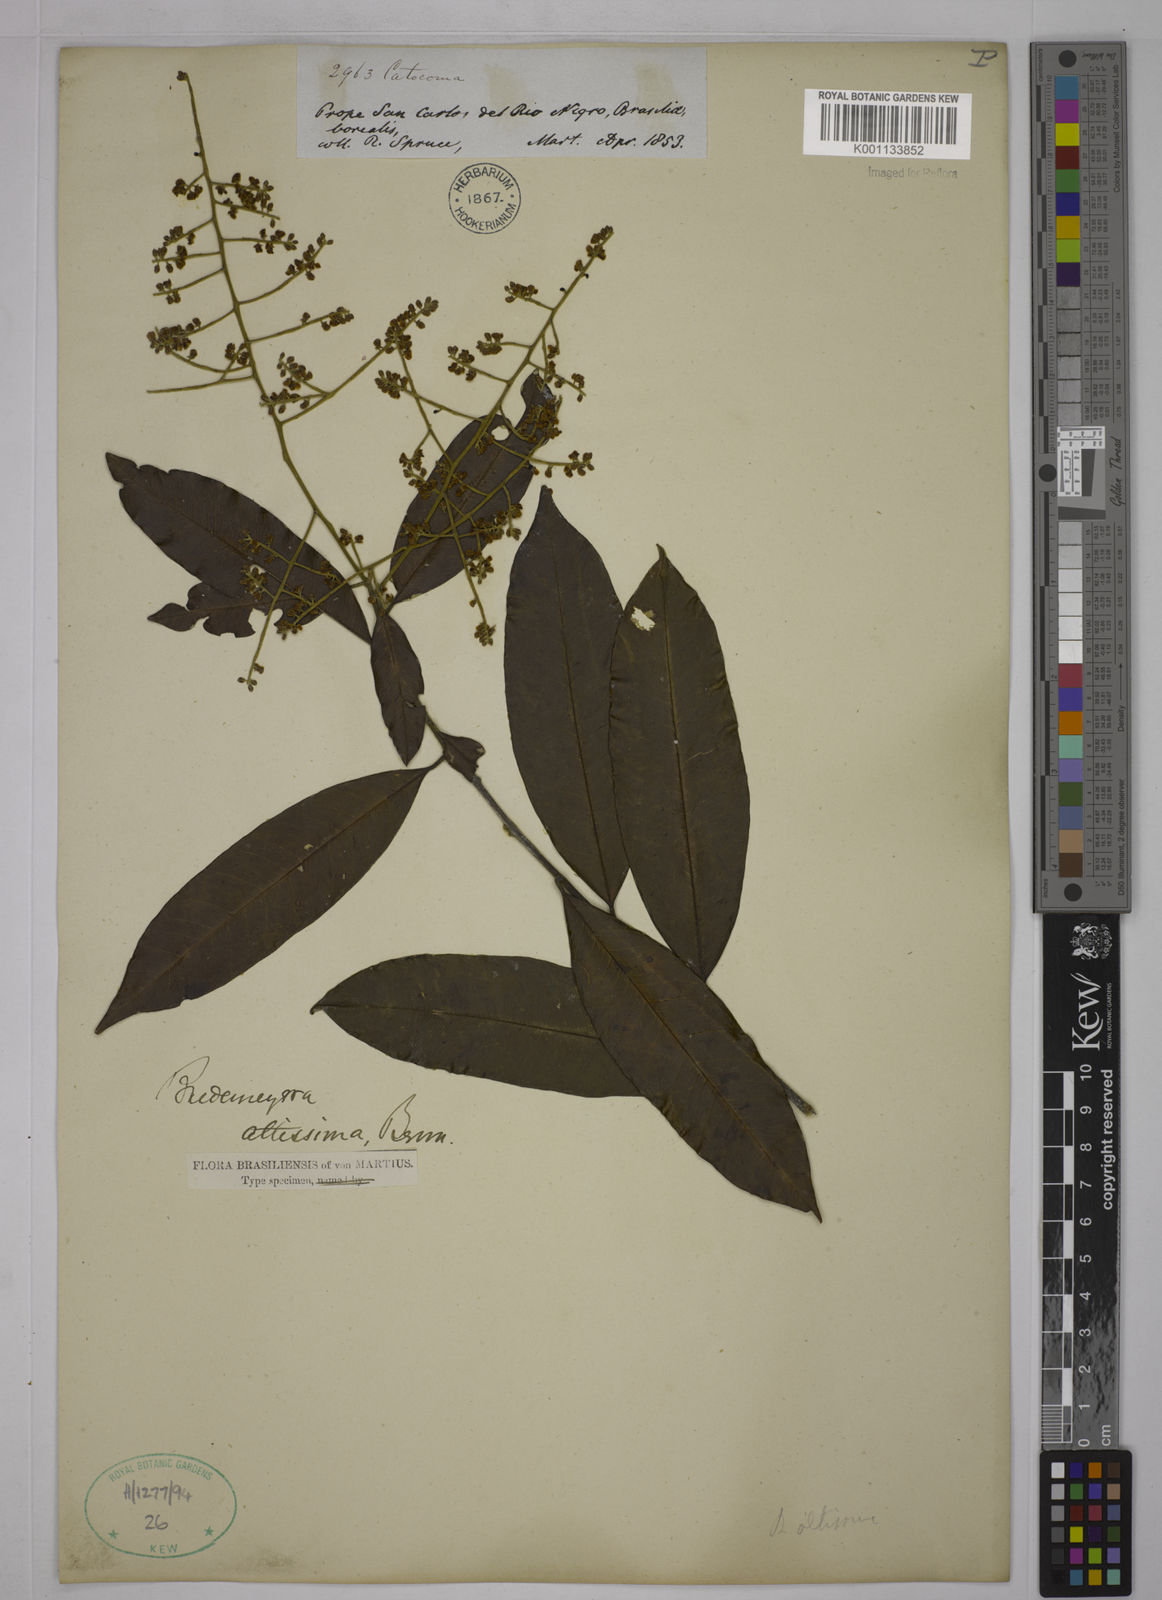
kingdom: Plantae
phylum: Tracheophyta
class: Magnoliopsida
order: Fabales
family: Polygalaceae
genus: Bredemeyera
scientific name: Bredemeyera divaricata
